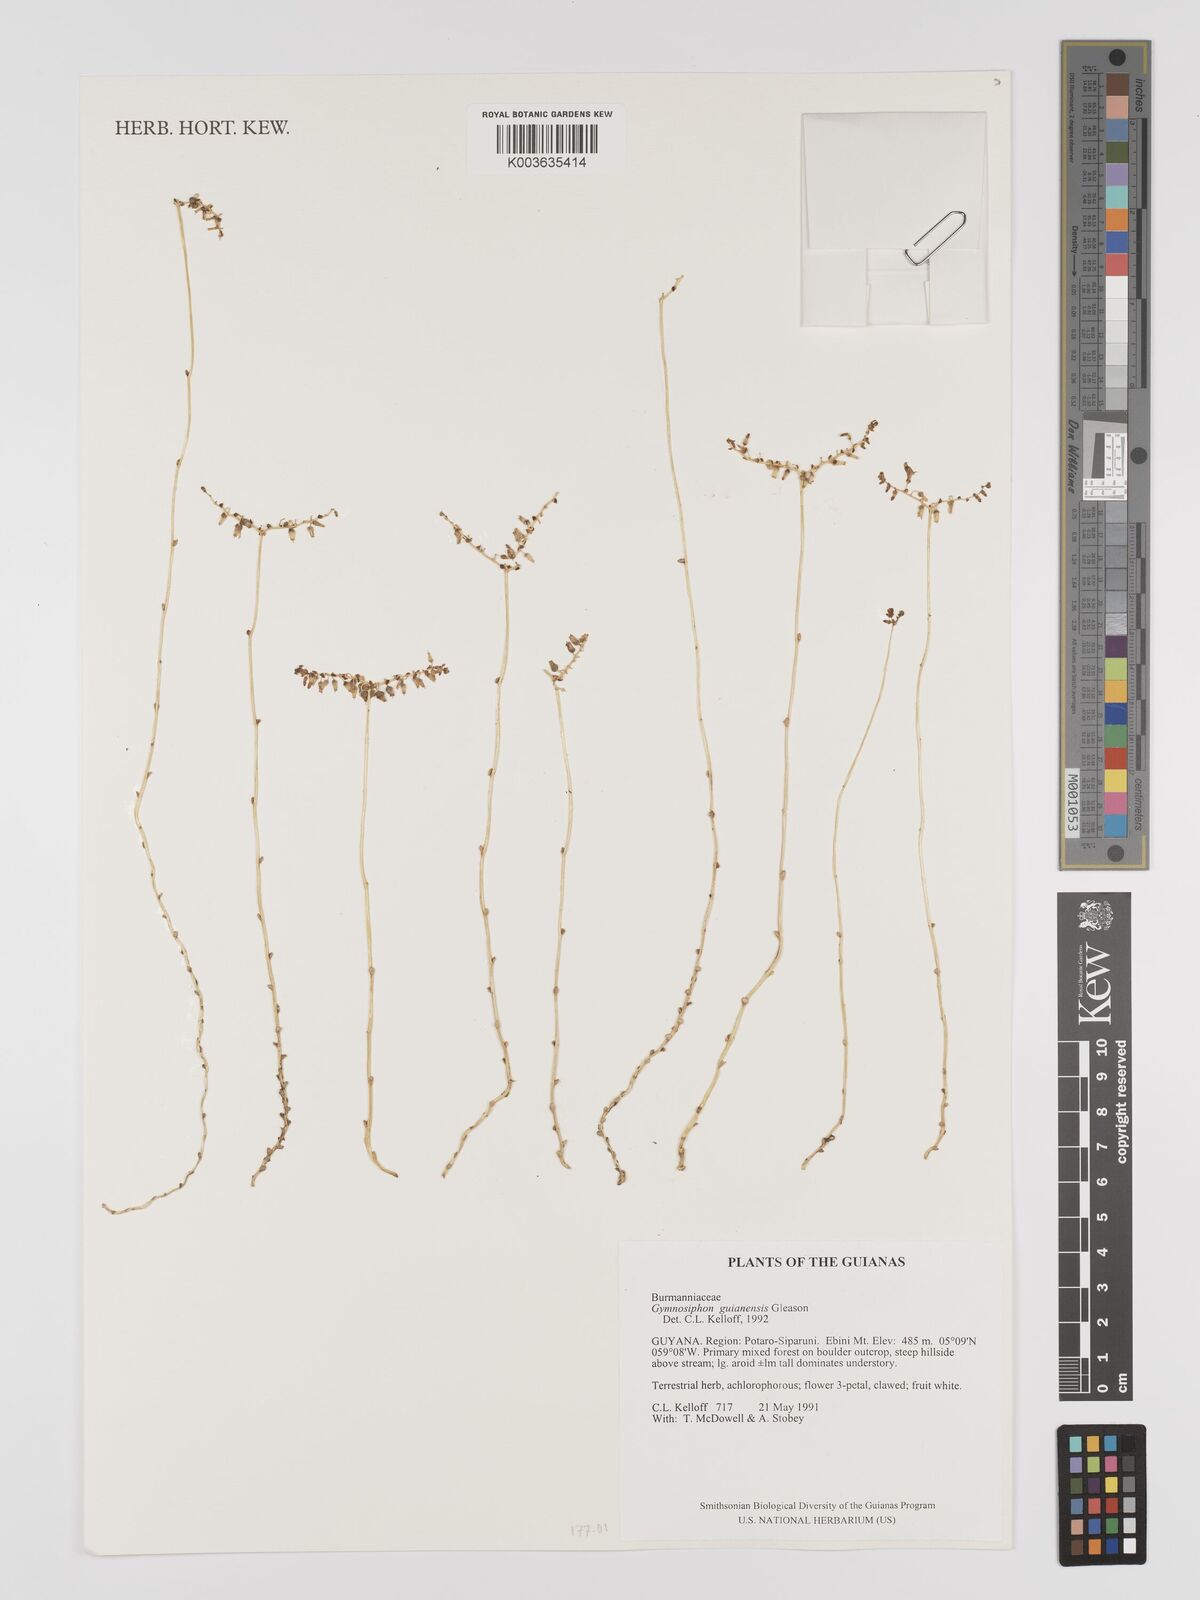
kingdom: Plantae
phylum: Tracheophyta
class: Liliopsida
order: Dioscoreales
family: Burmanniaceae
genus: Gymnosiphon
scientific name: Gymnosiphon guianensis
